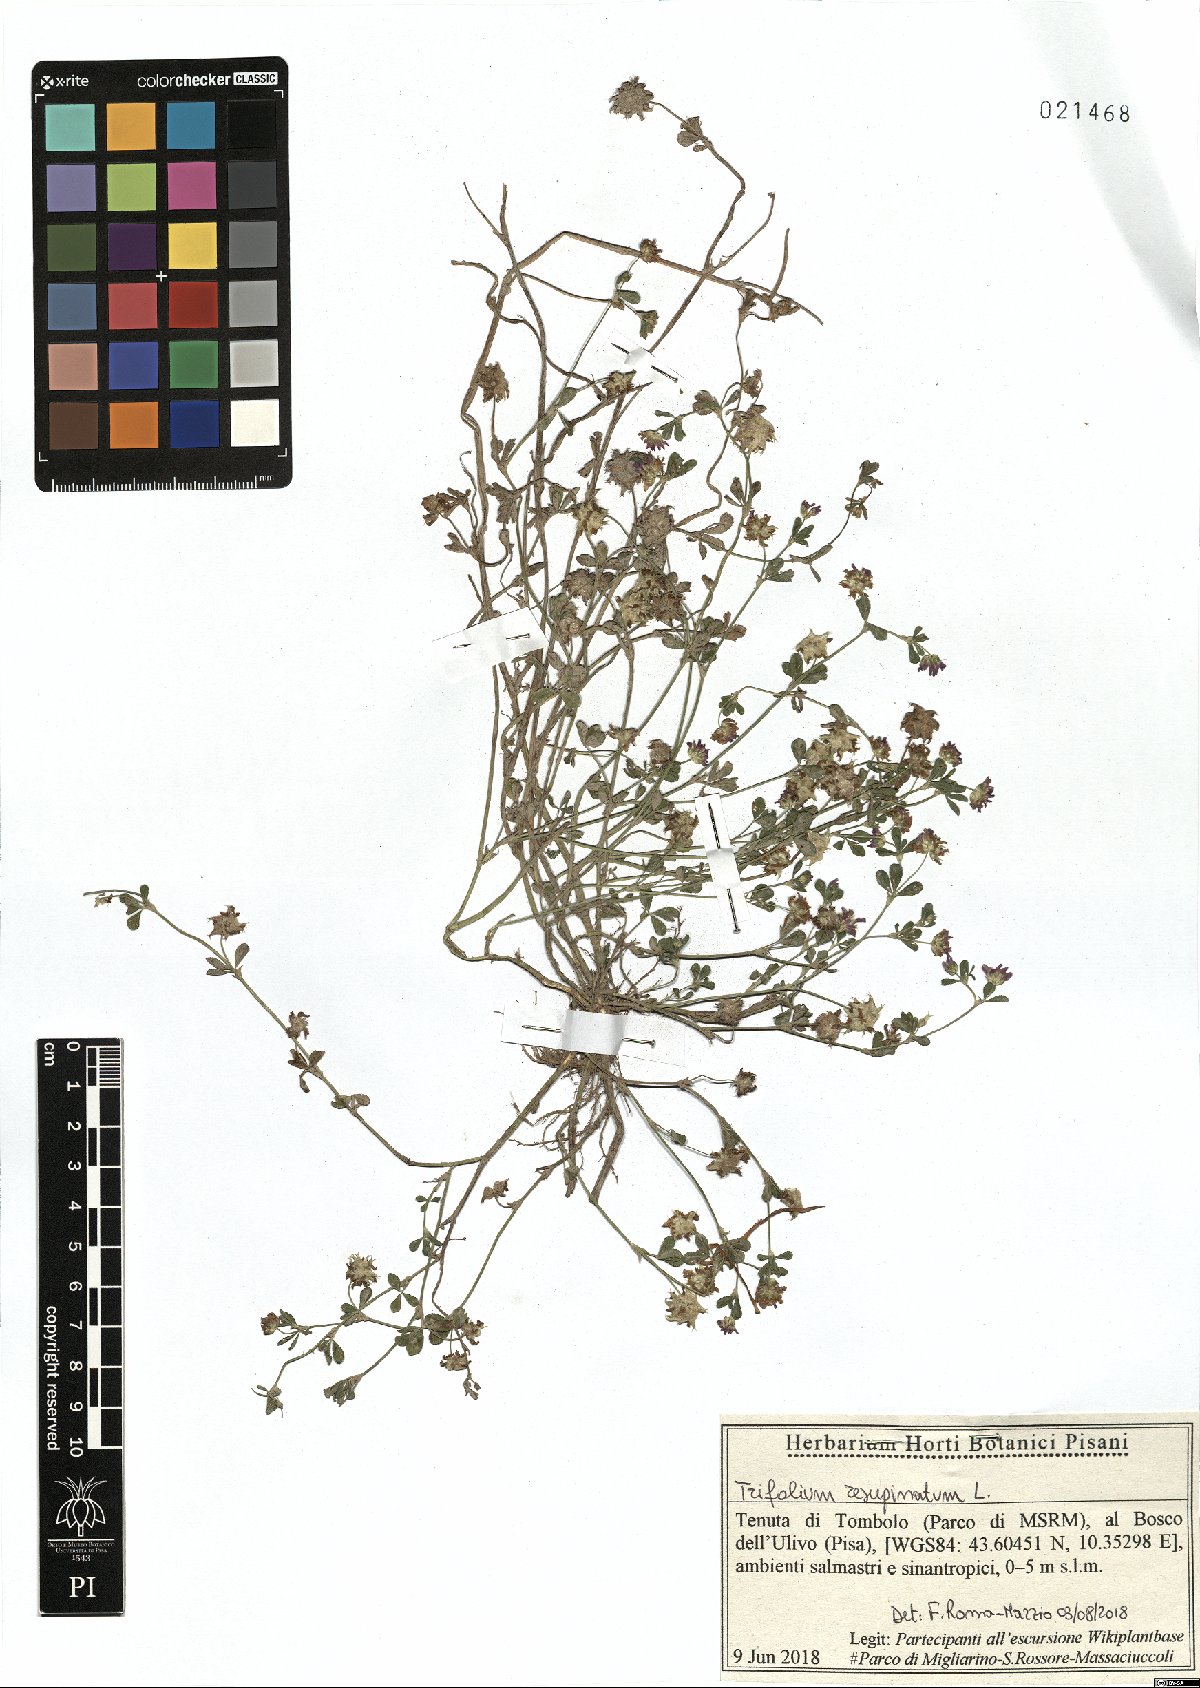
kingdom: Plantae
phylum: Tracheophyta
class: Magnoliopsida
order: Fabales
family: Fabaceae
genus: Trifolium
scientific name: Trifolium resupinatum
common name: Reversed clover
